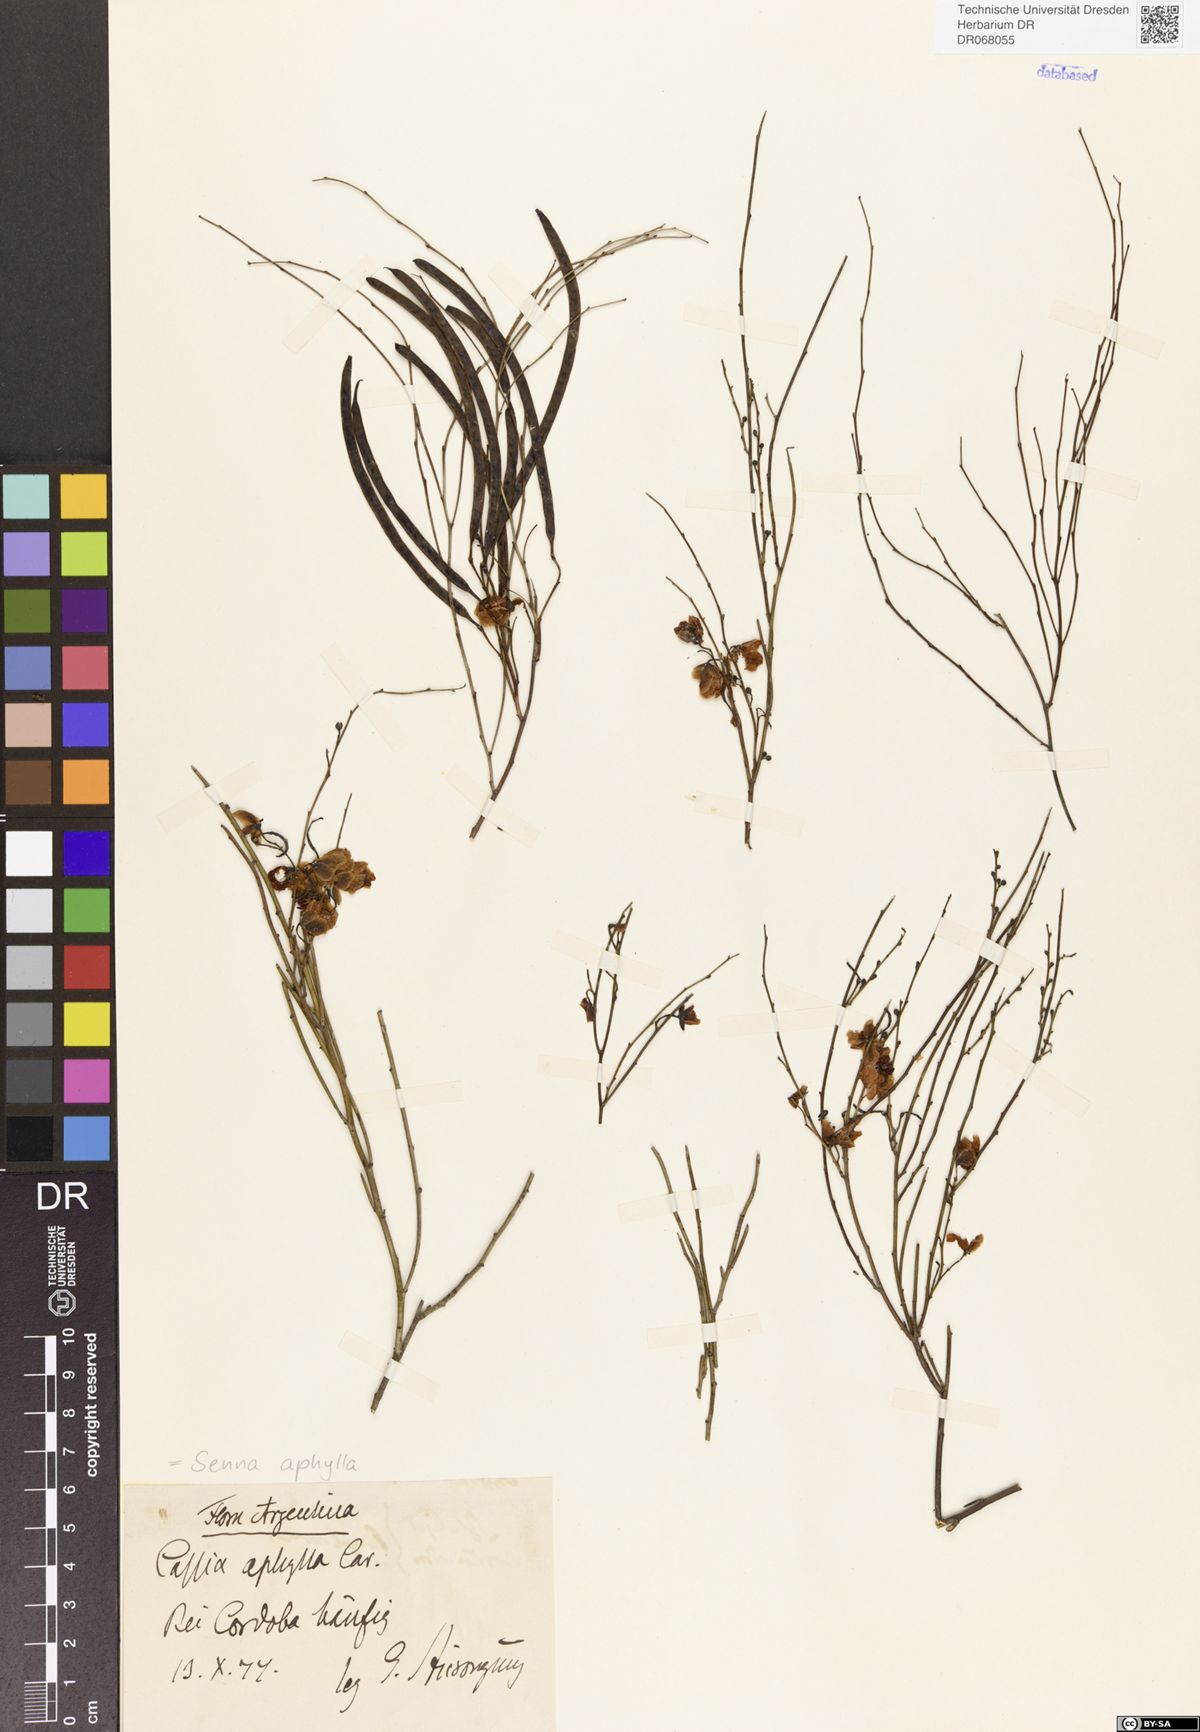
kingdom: Plantae
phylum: Tracheophyta
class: Magnoliopsida
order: Fabales
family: Fabaceae
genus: Senna
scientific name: Senna aphylla
